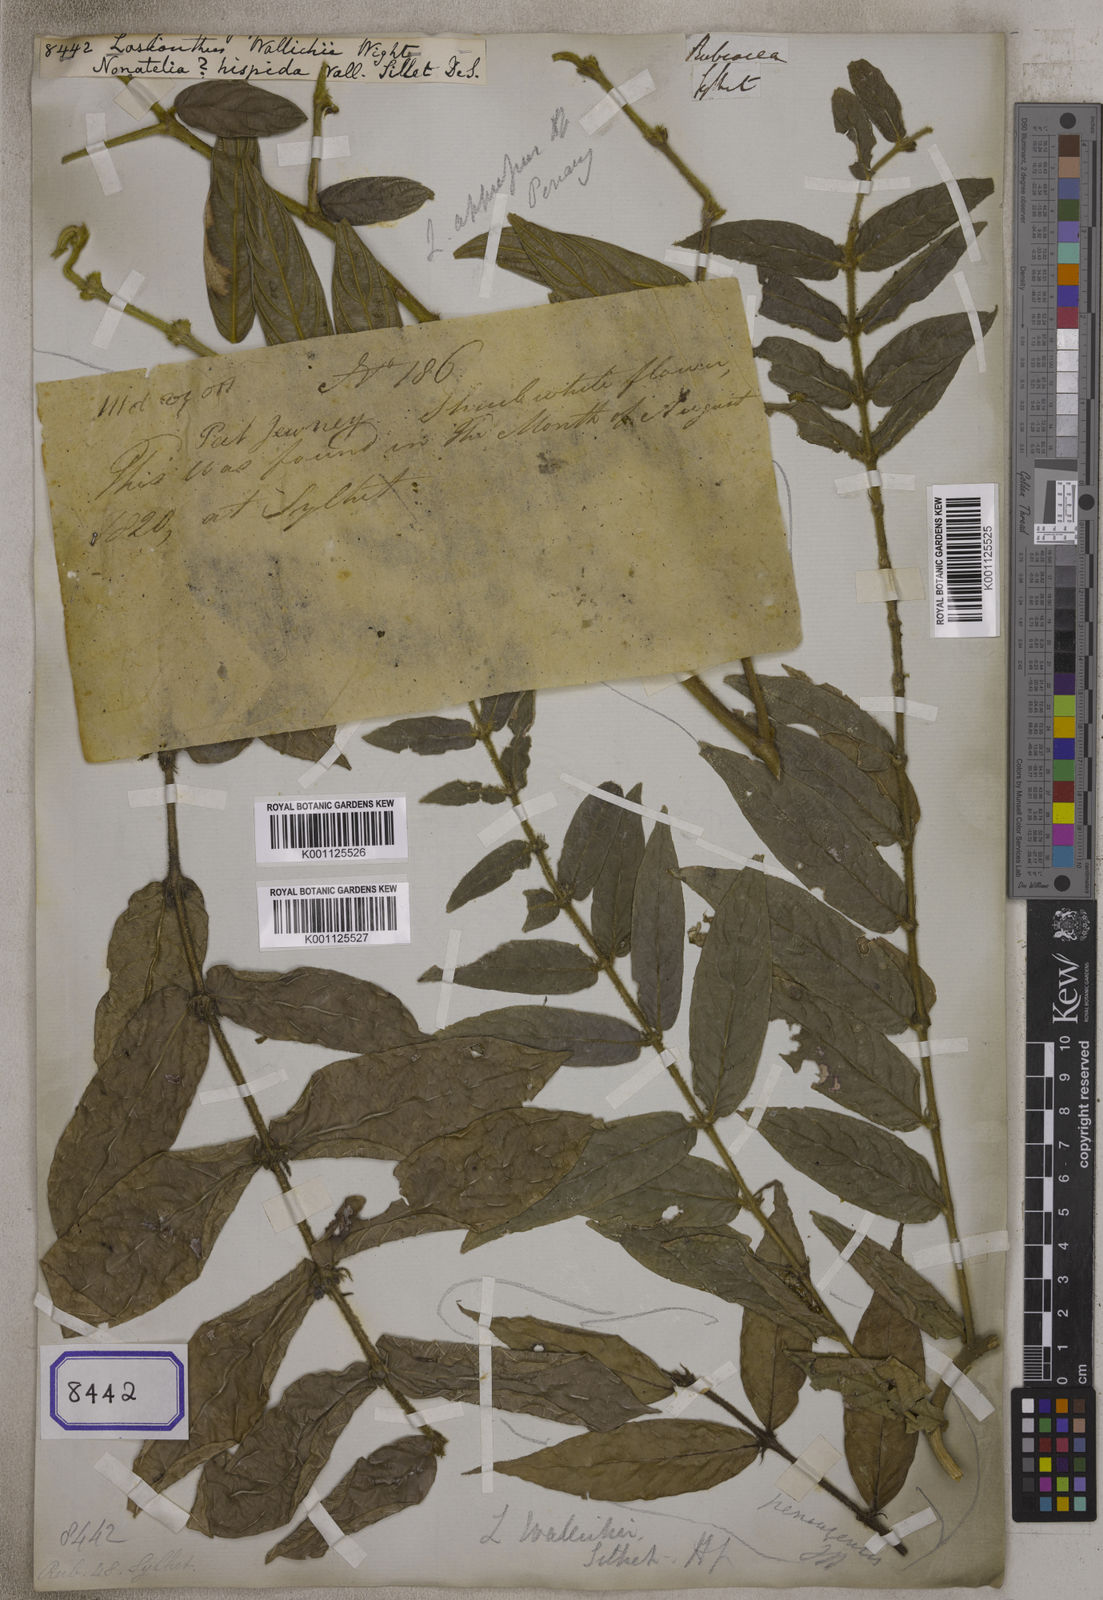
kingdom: Plantae
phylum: Tracheophyta
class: Magnoliopsida
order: Gentianales
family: Rubiaceae
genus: Lasianthus
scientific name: Lasianthus attenuatus
